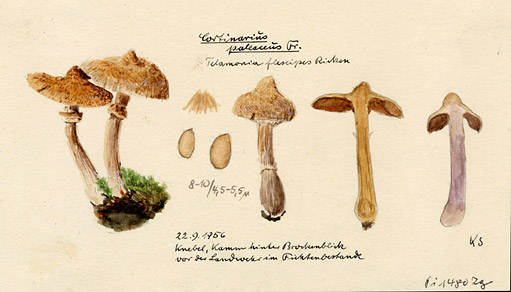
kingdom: Fungi
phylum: Basidiomycota
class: Agaricomycetes
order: Agaricales
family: Cortinariaceae
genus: Cortinarius
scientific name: Cortinarius hemitrichus
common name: Frosty webcap
